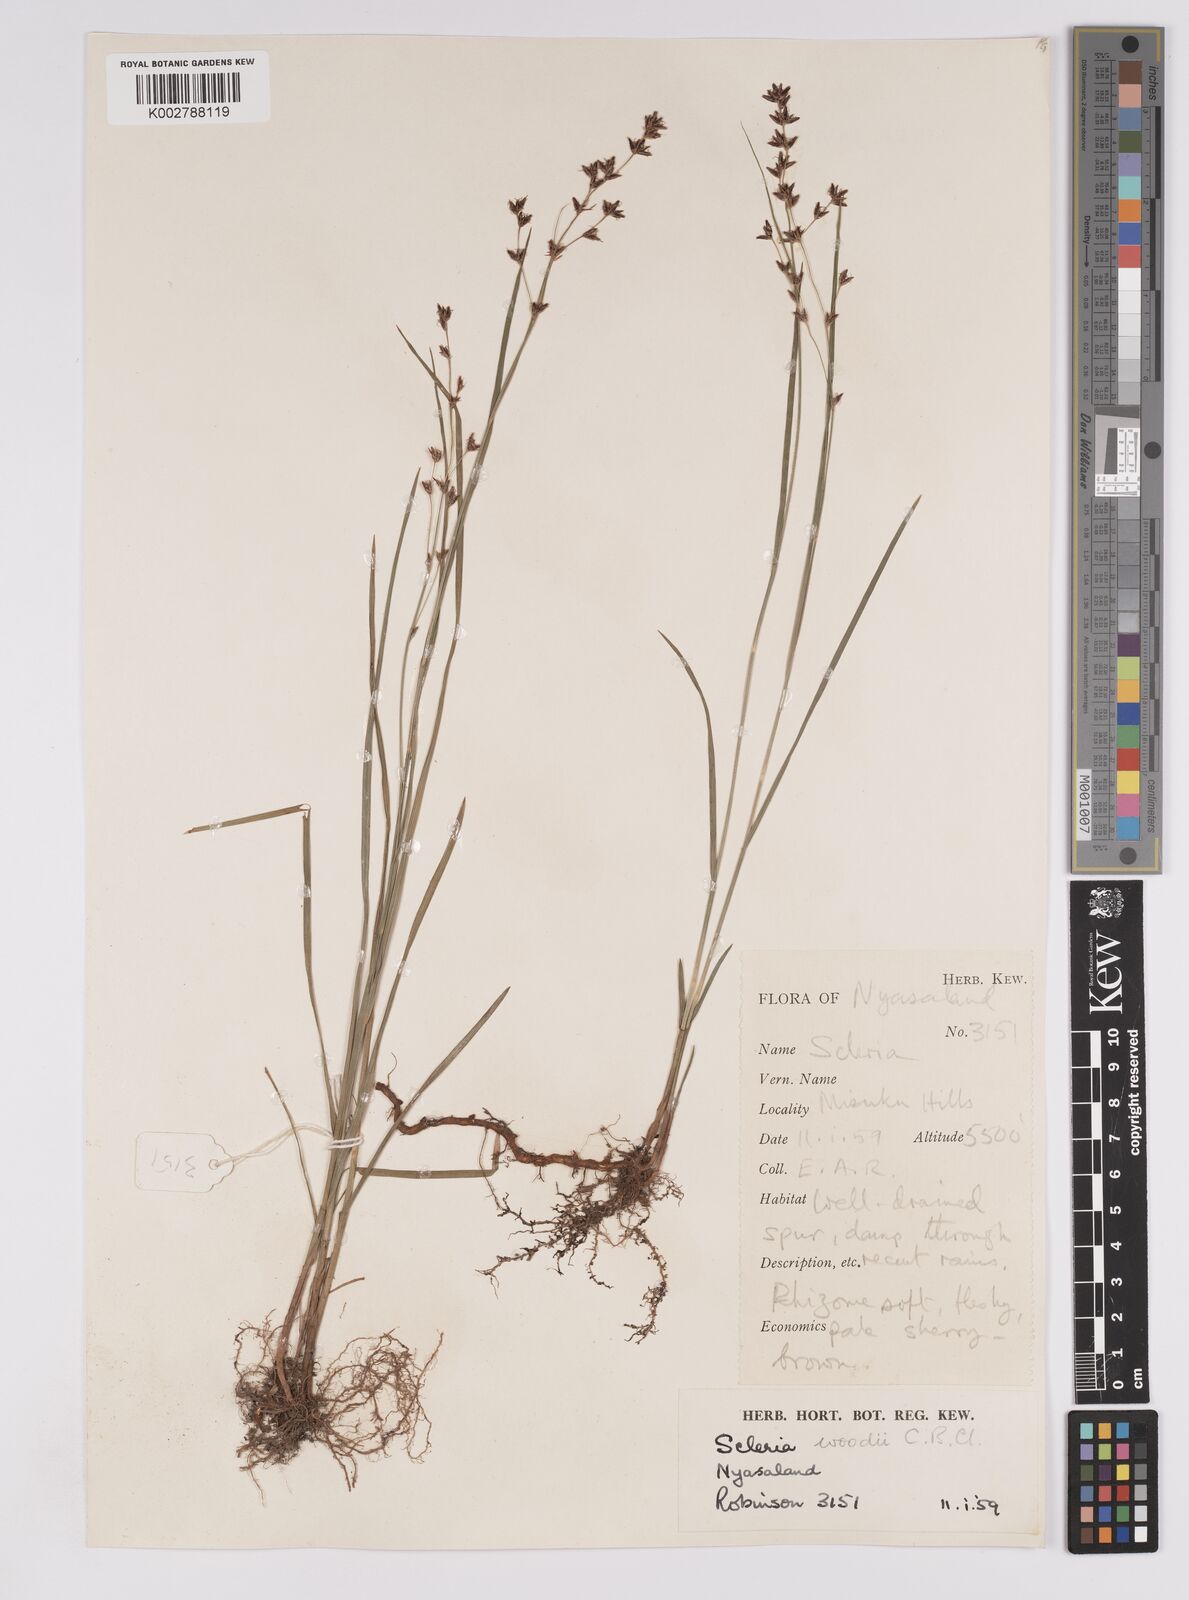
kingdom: Plantae
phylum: Tracheophyta
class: Liliopsida
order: Poales
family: Cyperaceae
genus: Scleria
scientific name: Scleria woodii
